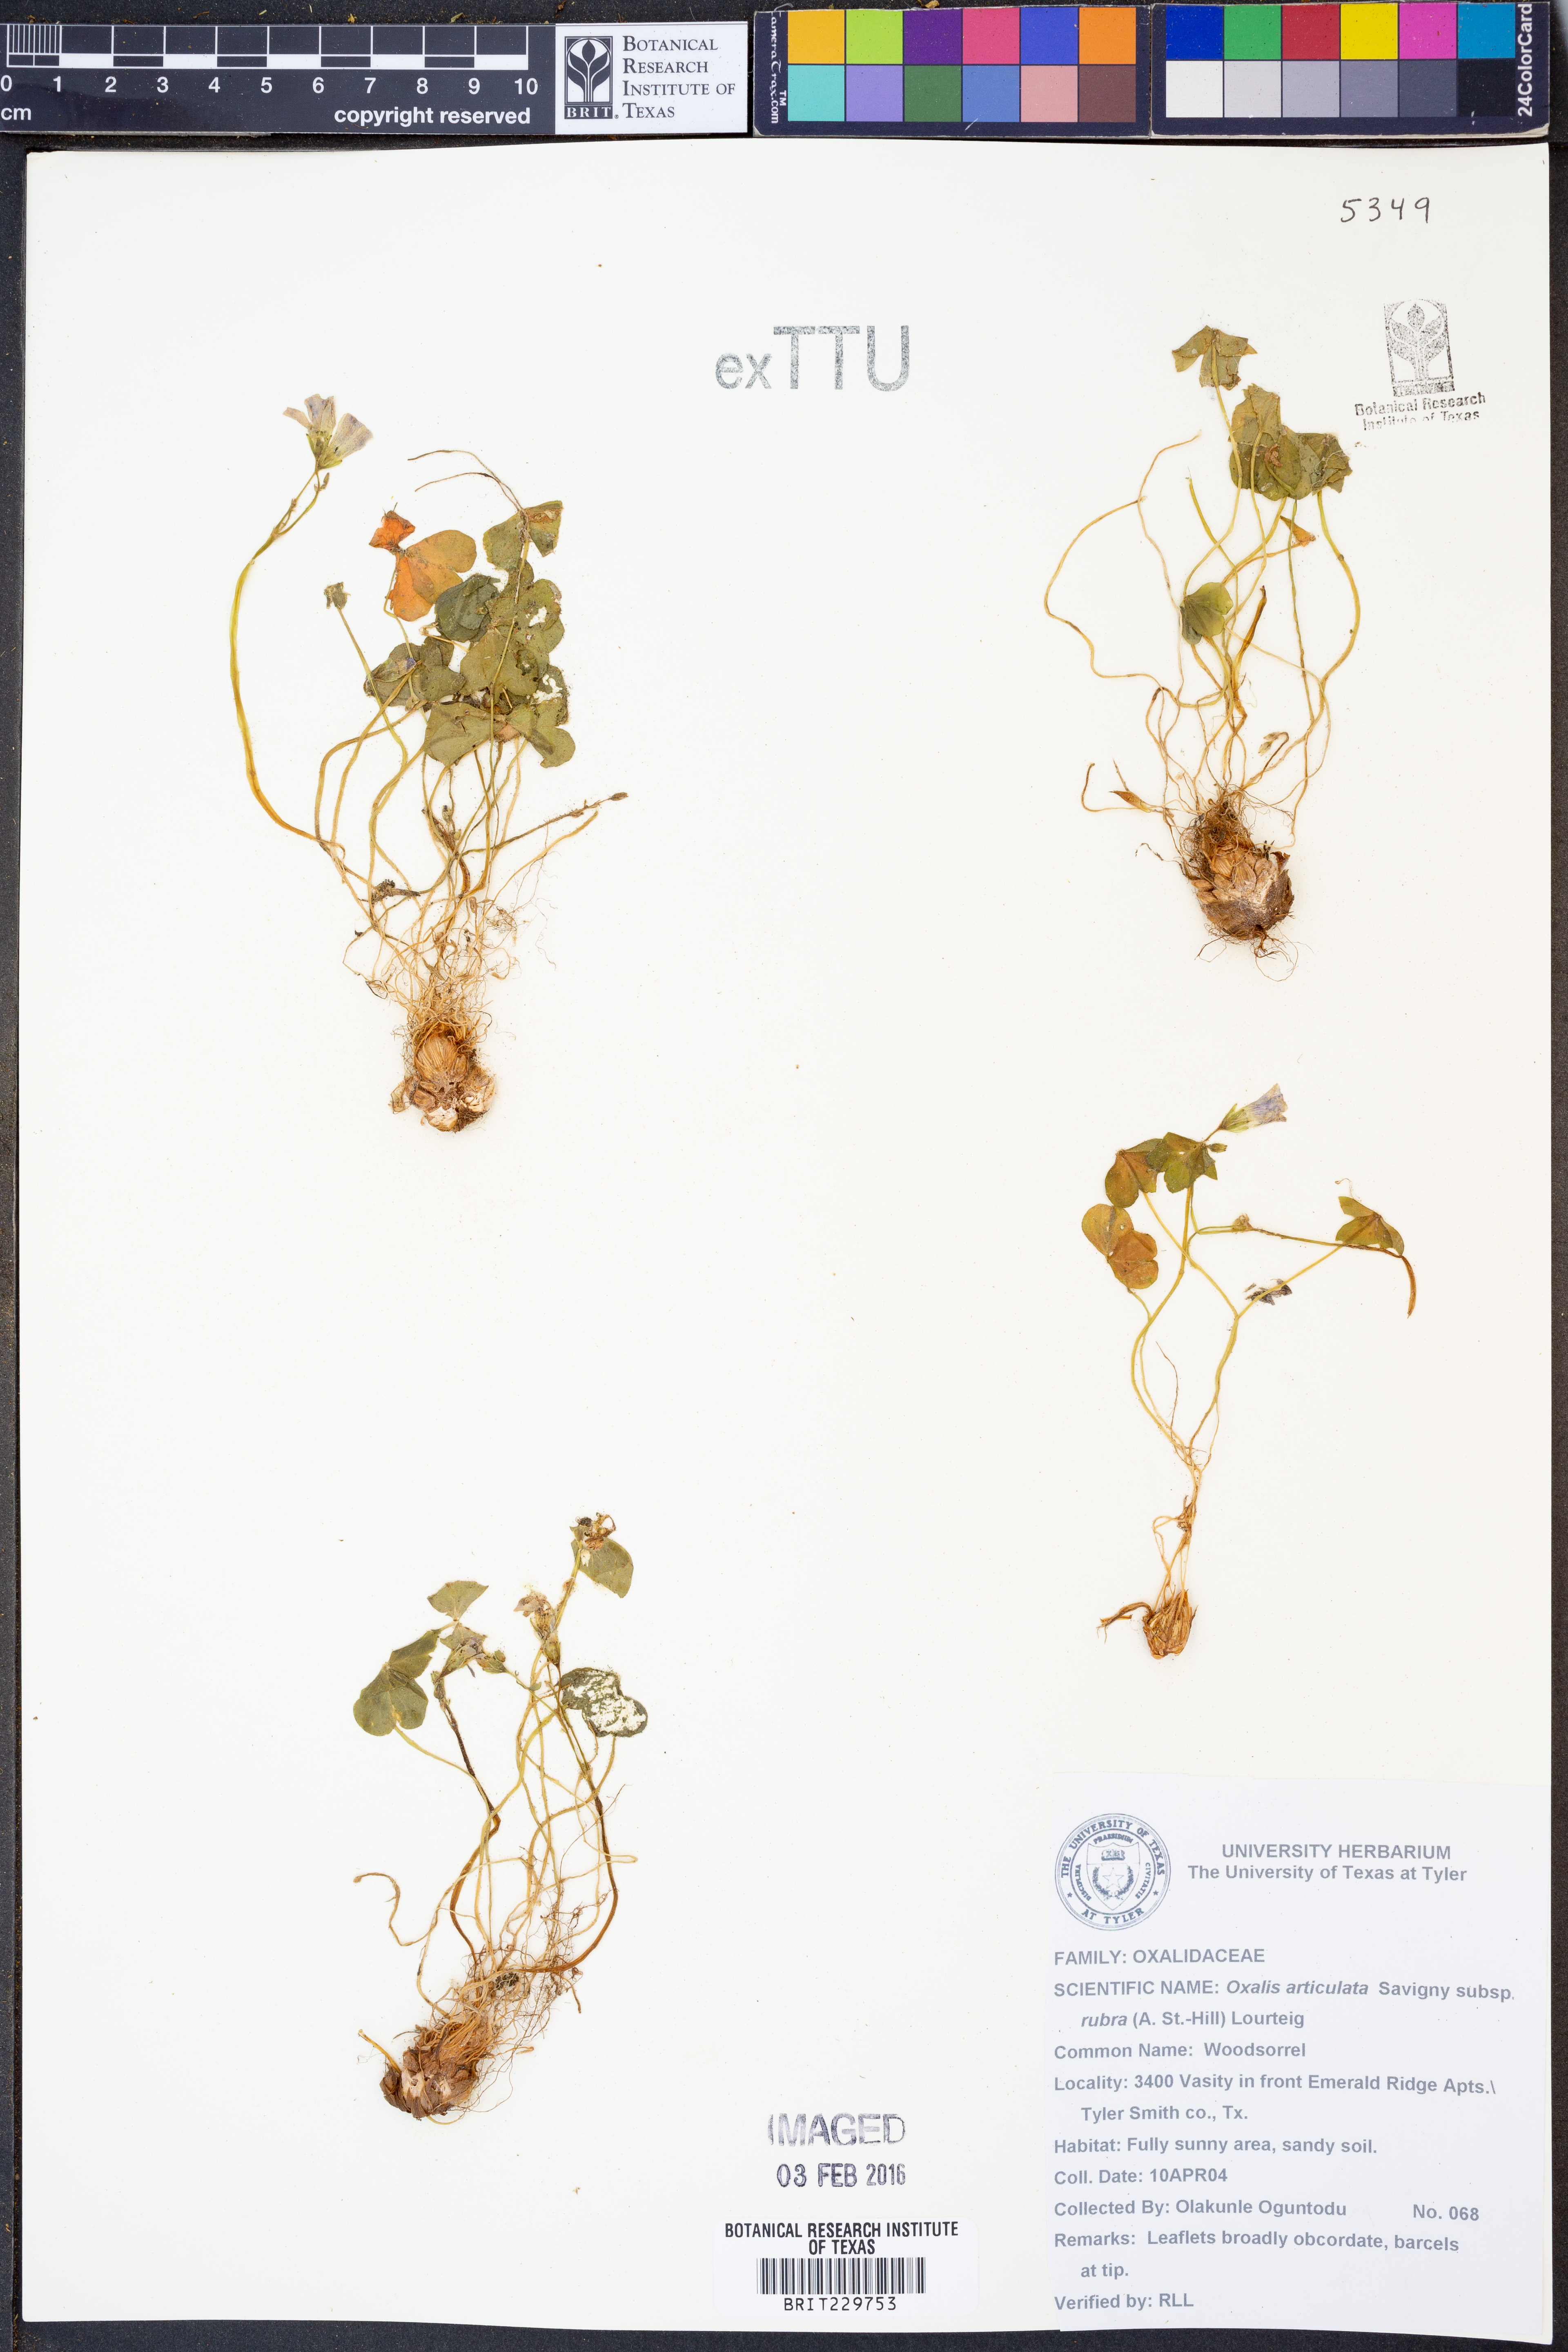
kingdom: Plantae
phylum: Tracheophyta
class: Magnoliopsida
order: Oxalidales
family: Oxalidaceae
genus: Oxalis
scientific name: Oxalis articulata
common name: Pink-sorrel
